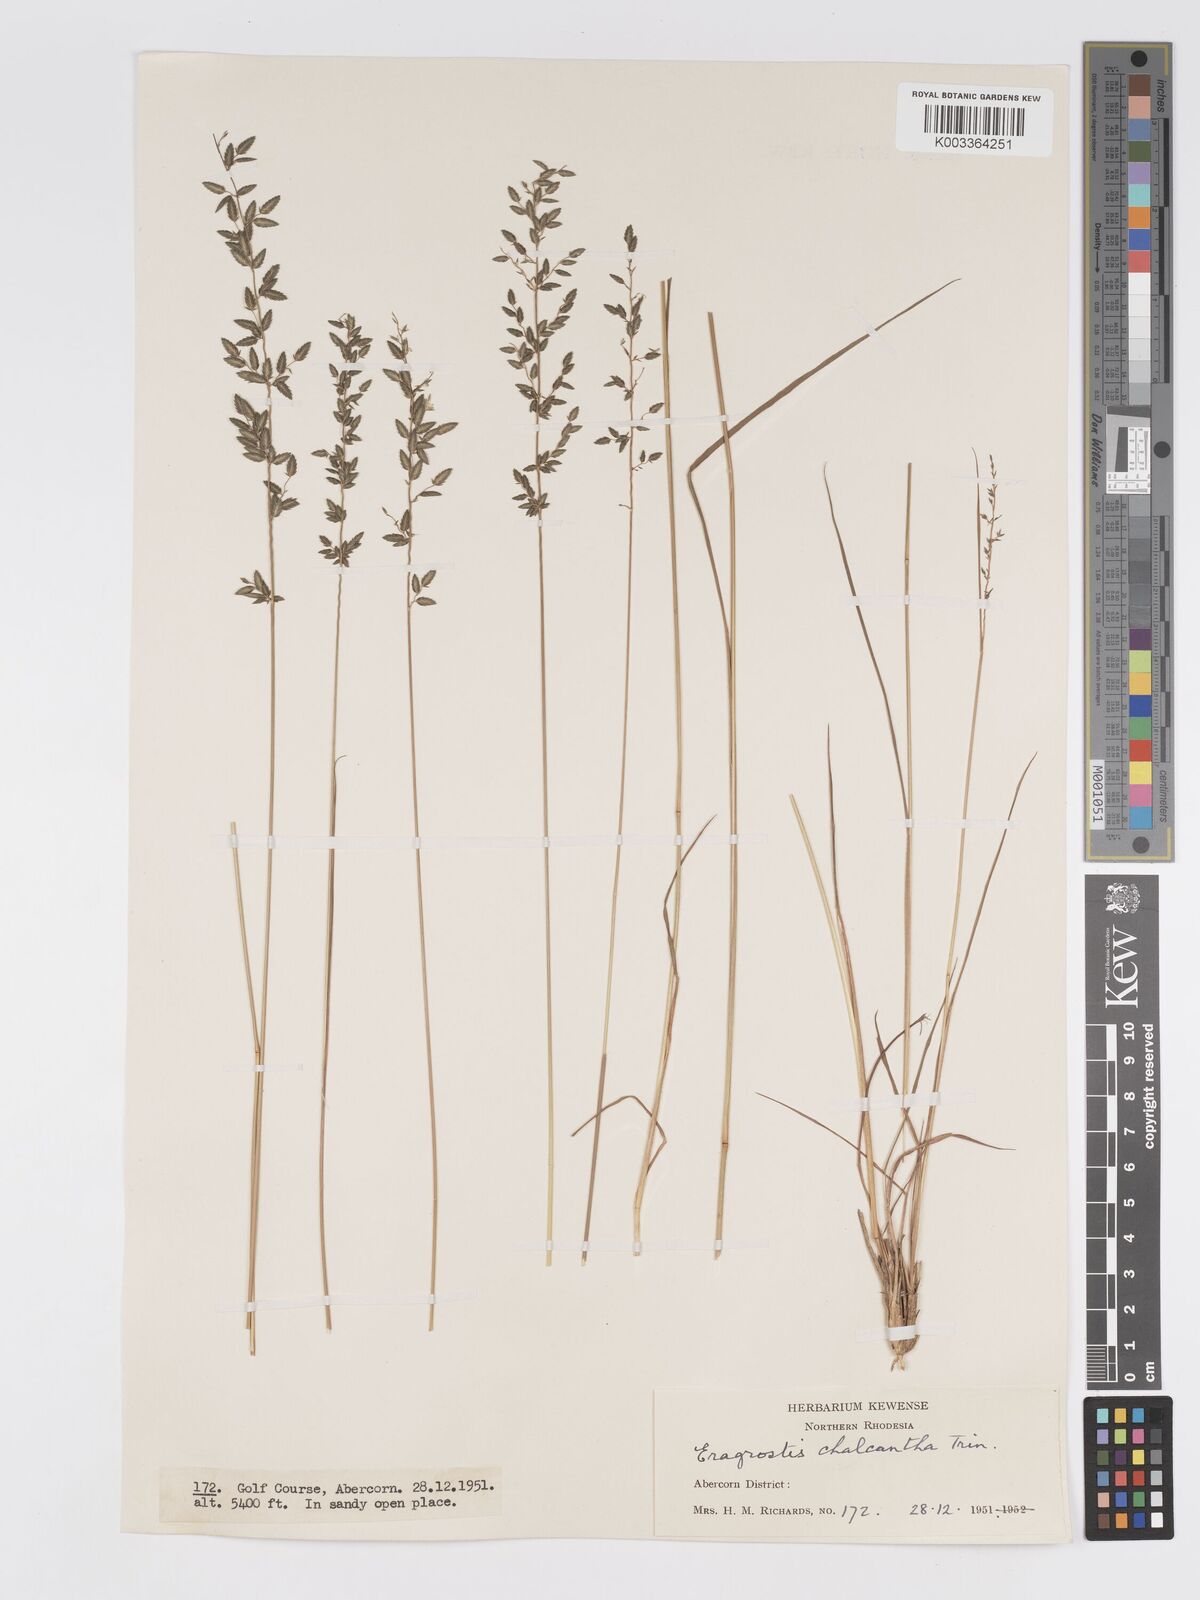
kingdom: Plantae
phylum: Tracheophyta
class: Liliopsida
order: Poales
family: Poaceae
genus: Eragrostis
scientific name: Eragrostis racemosa
